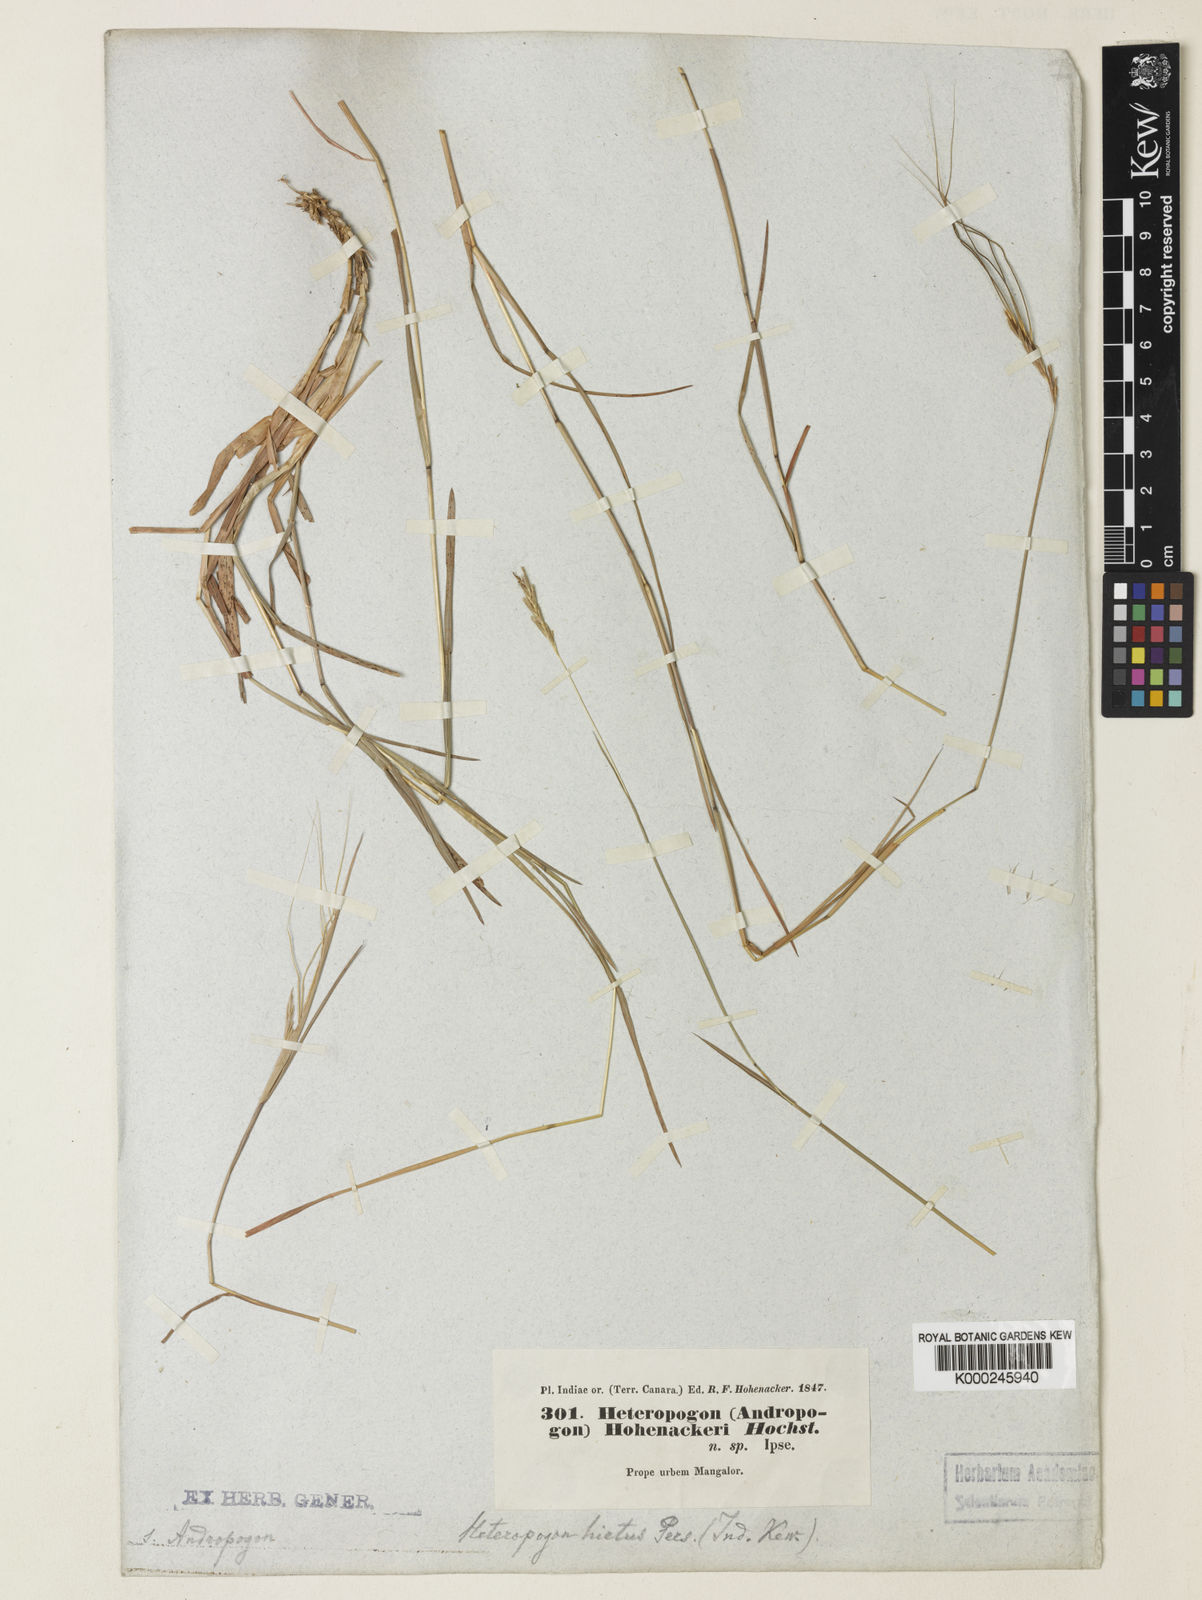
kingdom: Plantae
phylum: Tracheophyta
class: Liliopsida
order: Poales
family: Poaceae
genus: Heteropogon
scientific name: Heteropogon contortus
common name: Tanglehead
